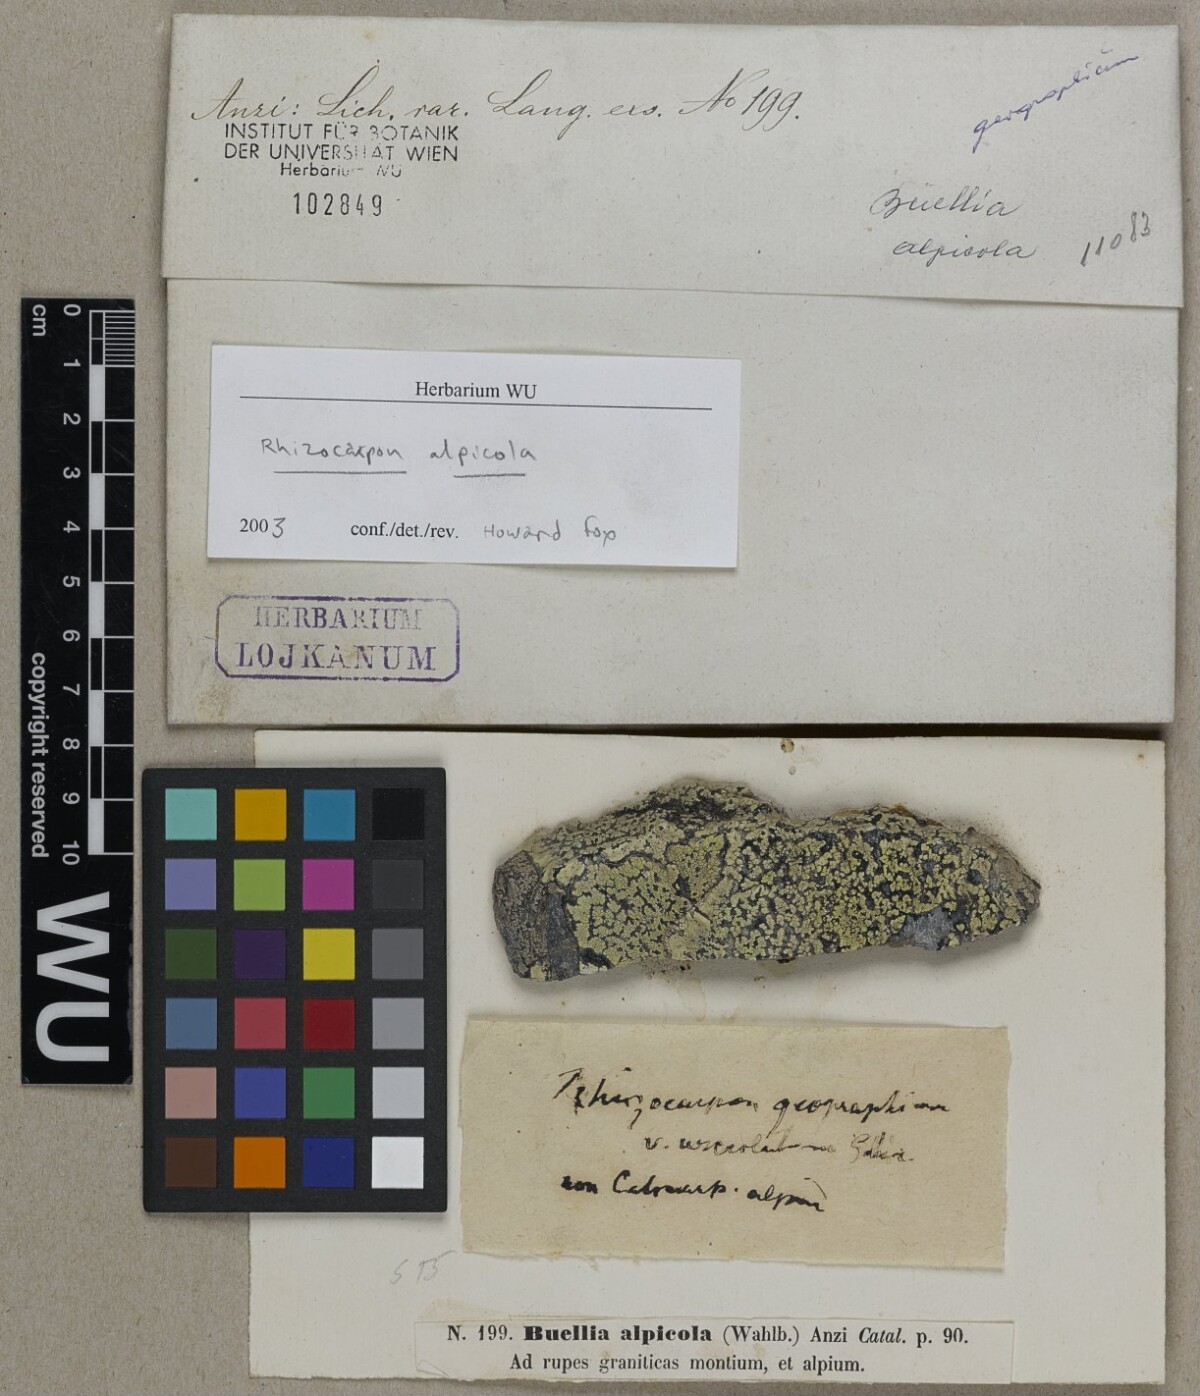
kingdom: Fungi
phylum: Ascomycota
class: Lecanoromycetes
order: Rhizocarpales
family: Rhizocarpaceae
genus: Rhizocarpon
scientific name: Rhizocarpon alpicola
